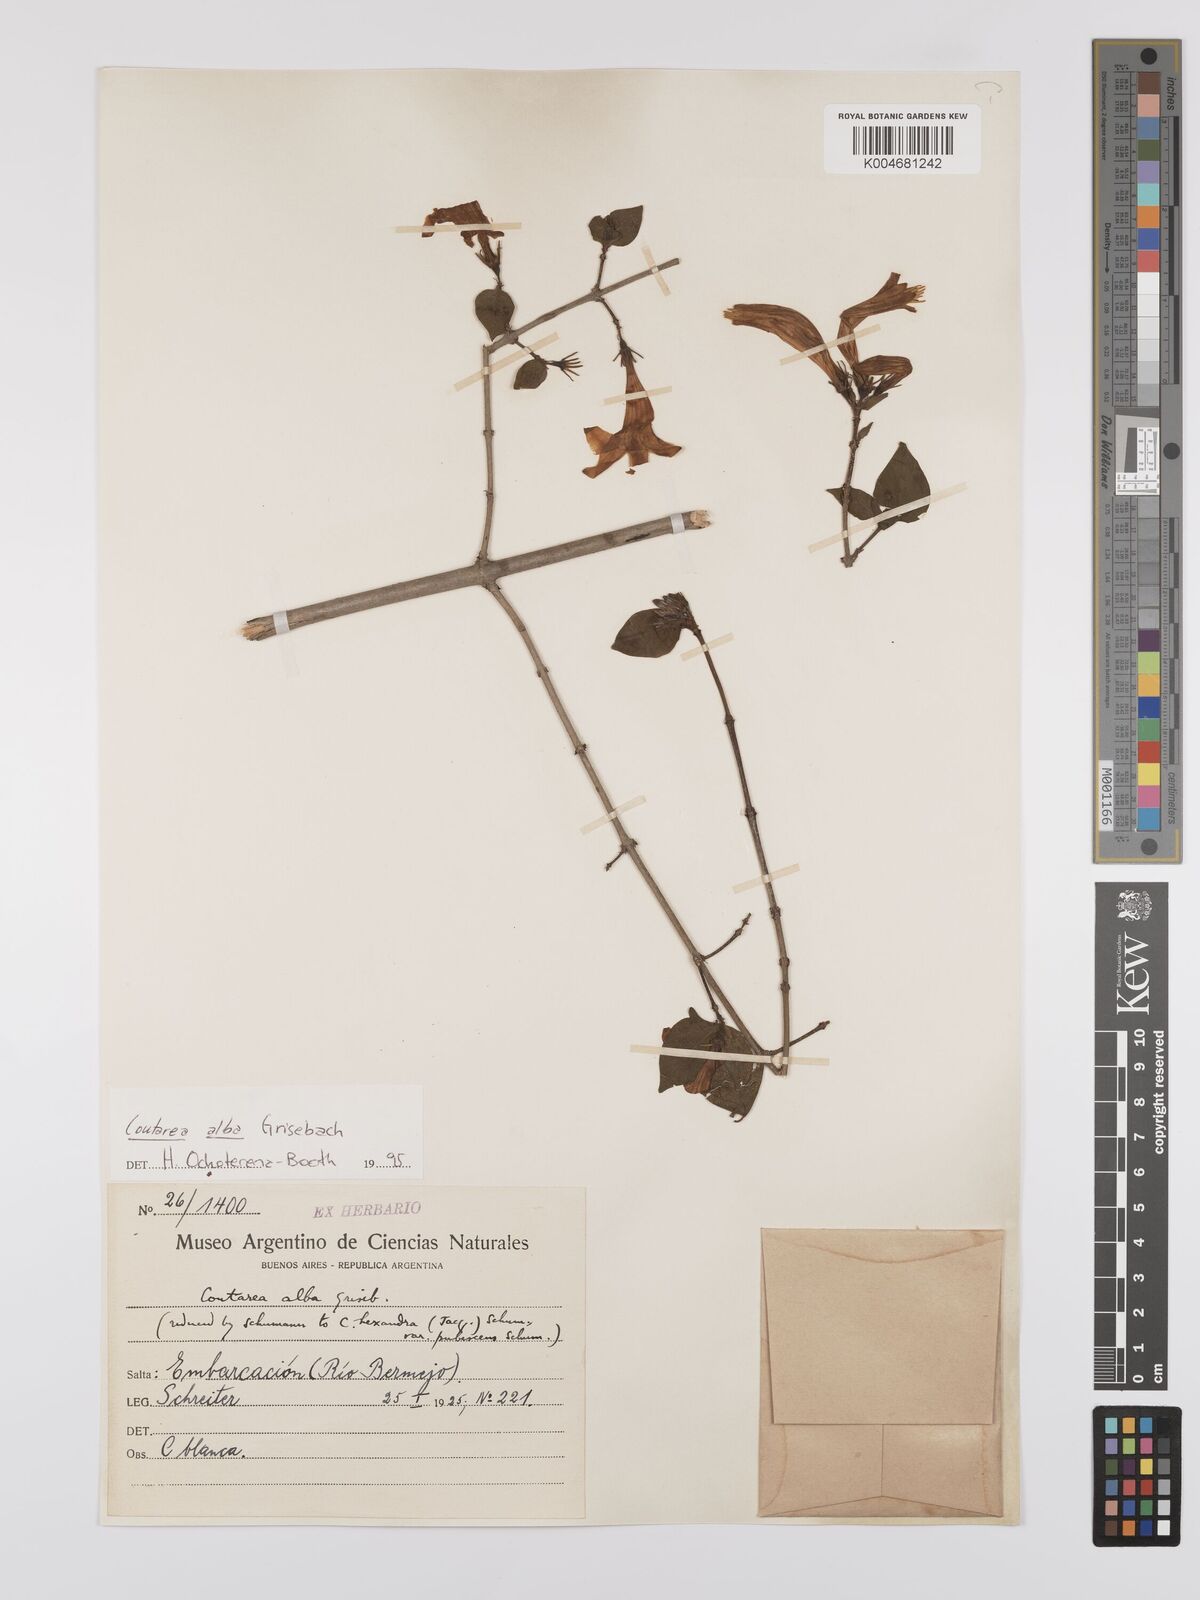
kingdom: Plantae
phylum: Tracheophyta
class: Magnoliopsida
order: Gentianales
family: Rubiaceae
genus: Coutarea
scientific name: Coutarea alba
